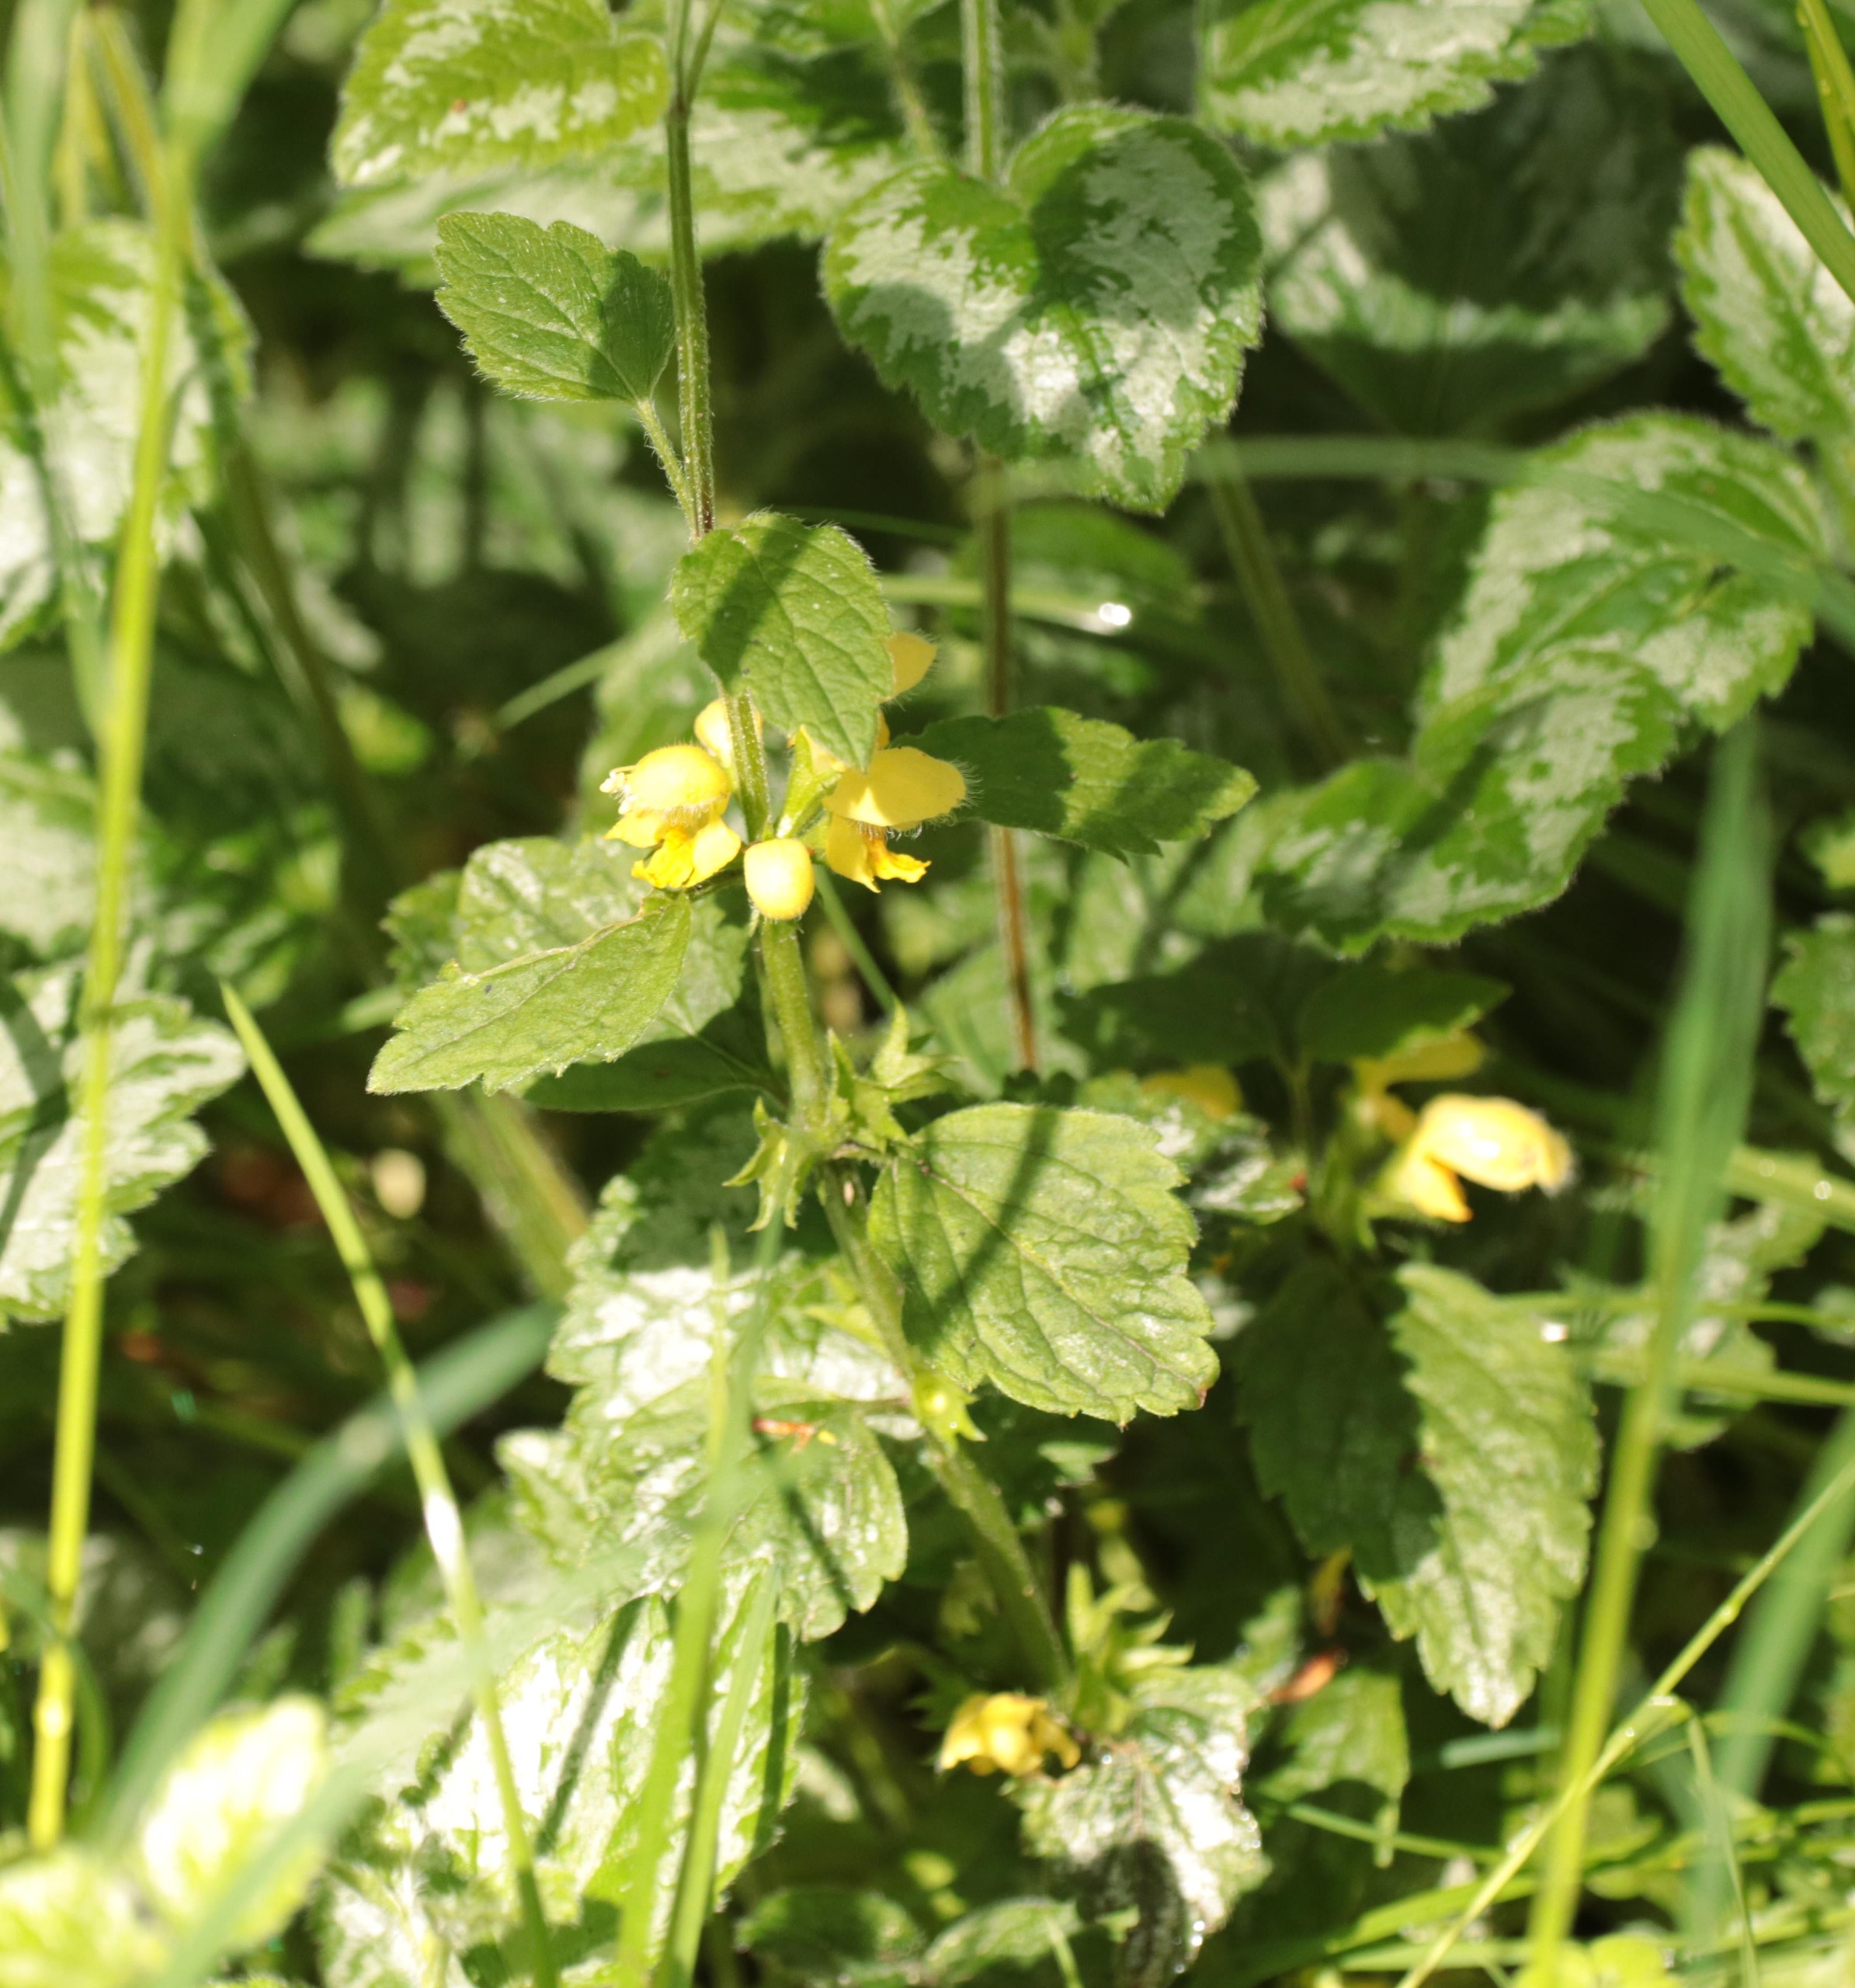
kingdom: Plantae
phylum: Tracheophyta
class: Magnoliopsida
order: Lamiales
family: Lamiaceae
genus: Lamium
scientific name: Lamium galeobdolon
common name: Have-guldnælde
